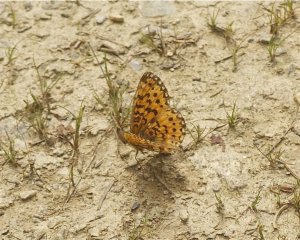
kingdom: Animalia
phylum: Arthropoda
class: Insecta
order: Lepidoptera
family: Nymphalidae
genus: Boloria
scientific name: Boloria selene
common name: Silver-bordered Fritillary
